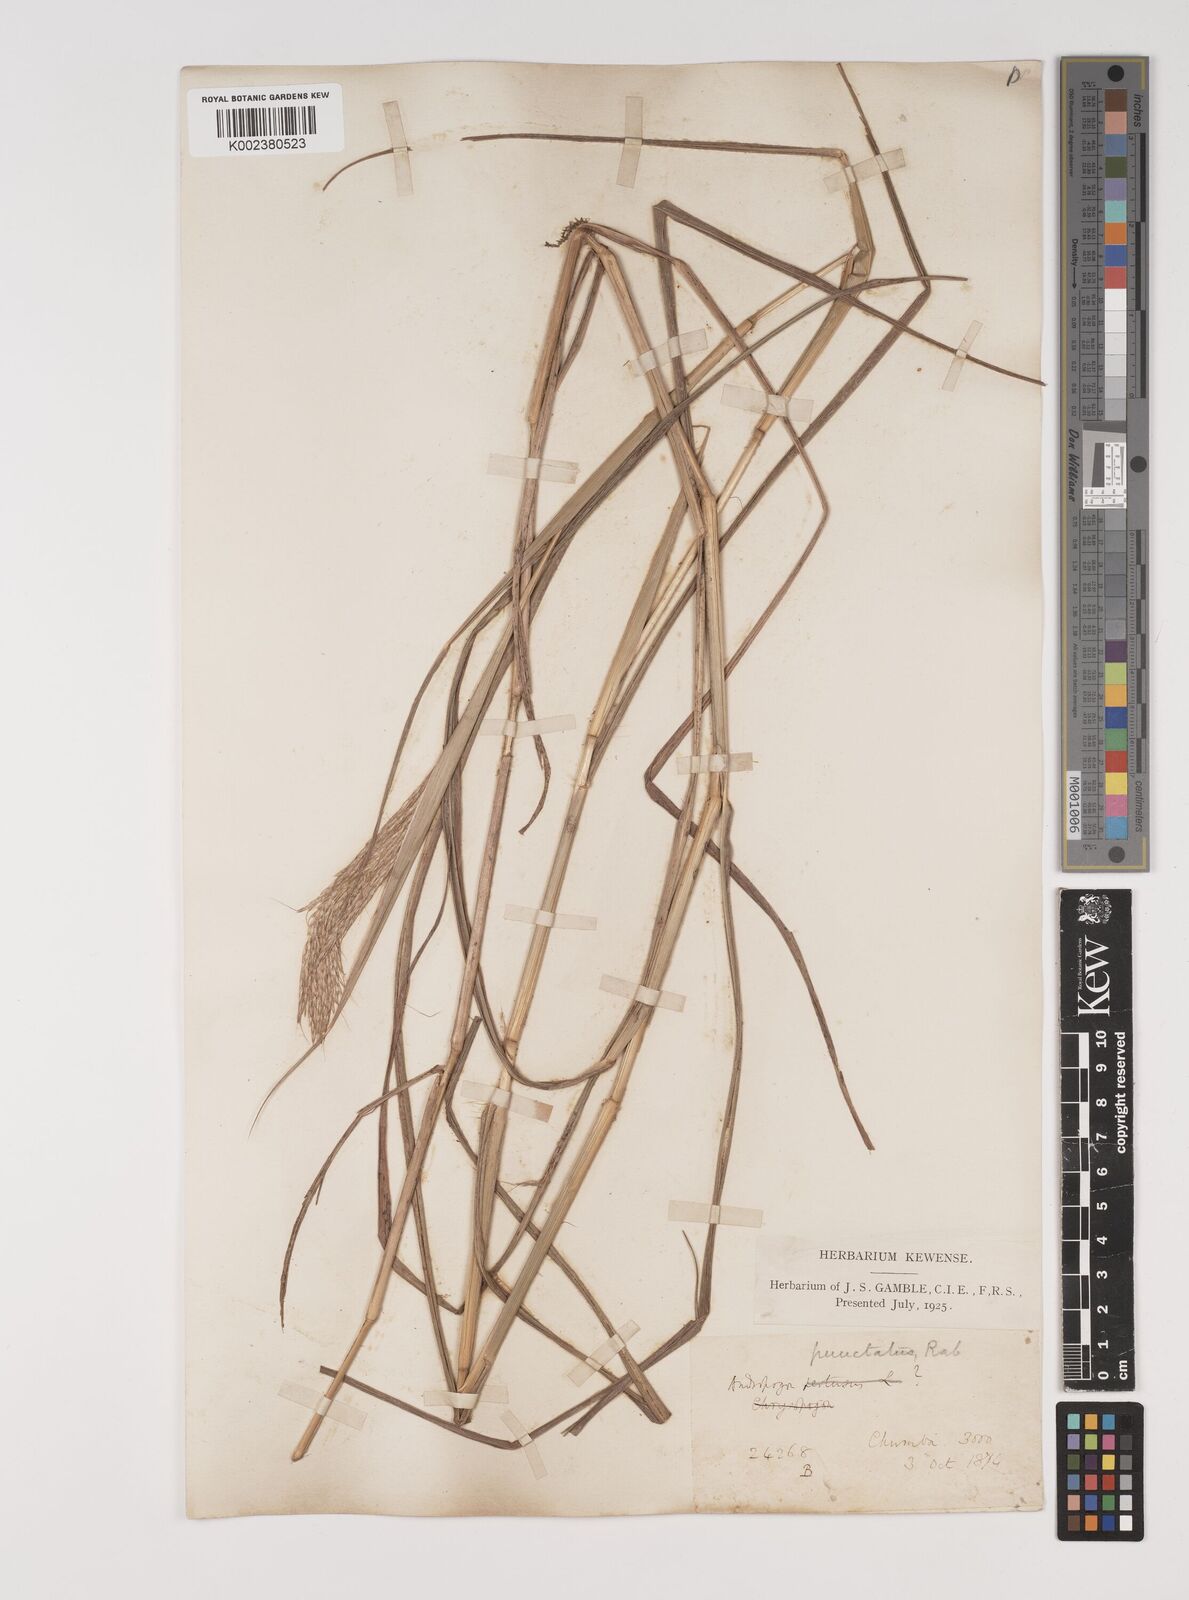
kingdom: Plantae
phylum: Tracheophyta
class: Liliopsida
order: Poales
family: Poaceae
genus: Bothriochloa
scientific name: Bothriochloa bladhii
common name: Caucasian bluestem
